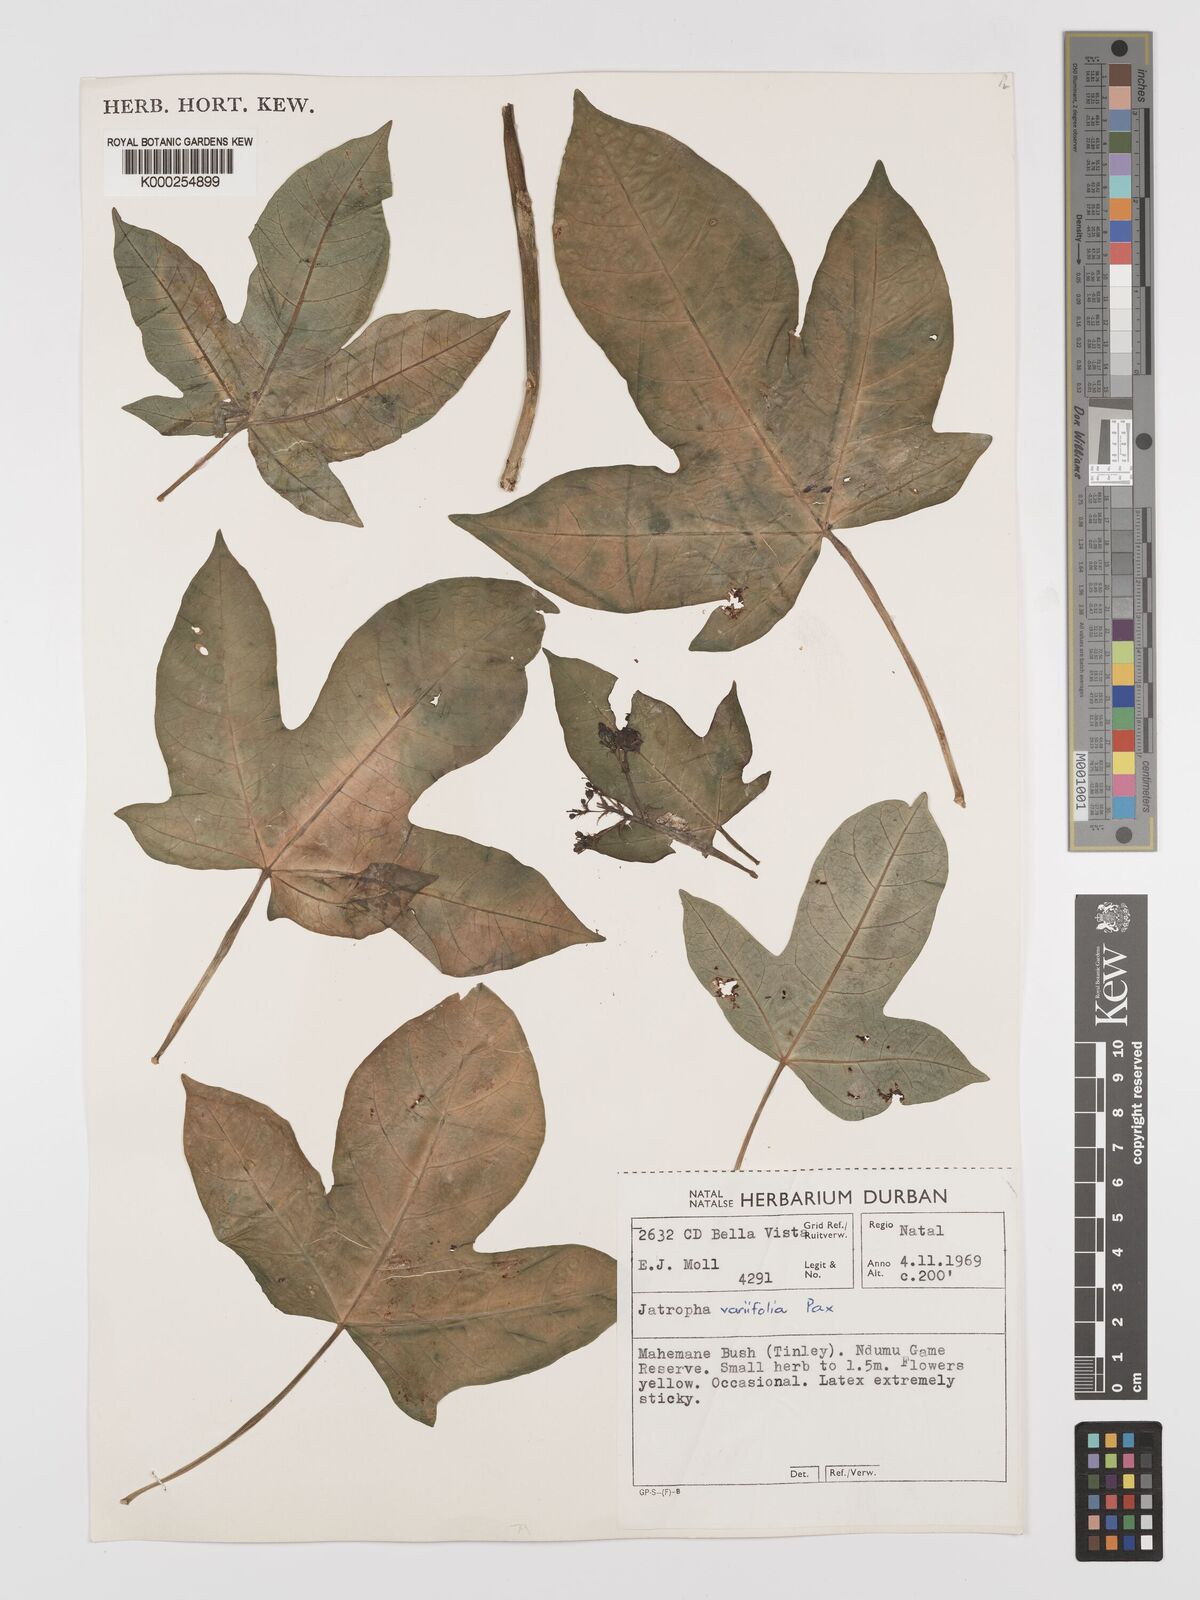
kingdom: Plantae
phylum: Tracheophyta
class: Magnoliopsida
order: Malpighiales
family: Euphorbiaceae
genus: Jatropha
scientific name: Jatropha variifolia
